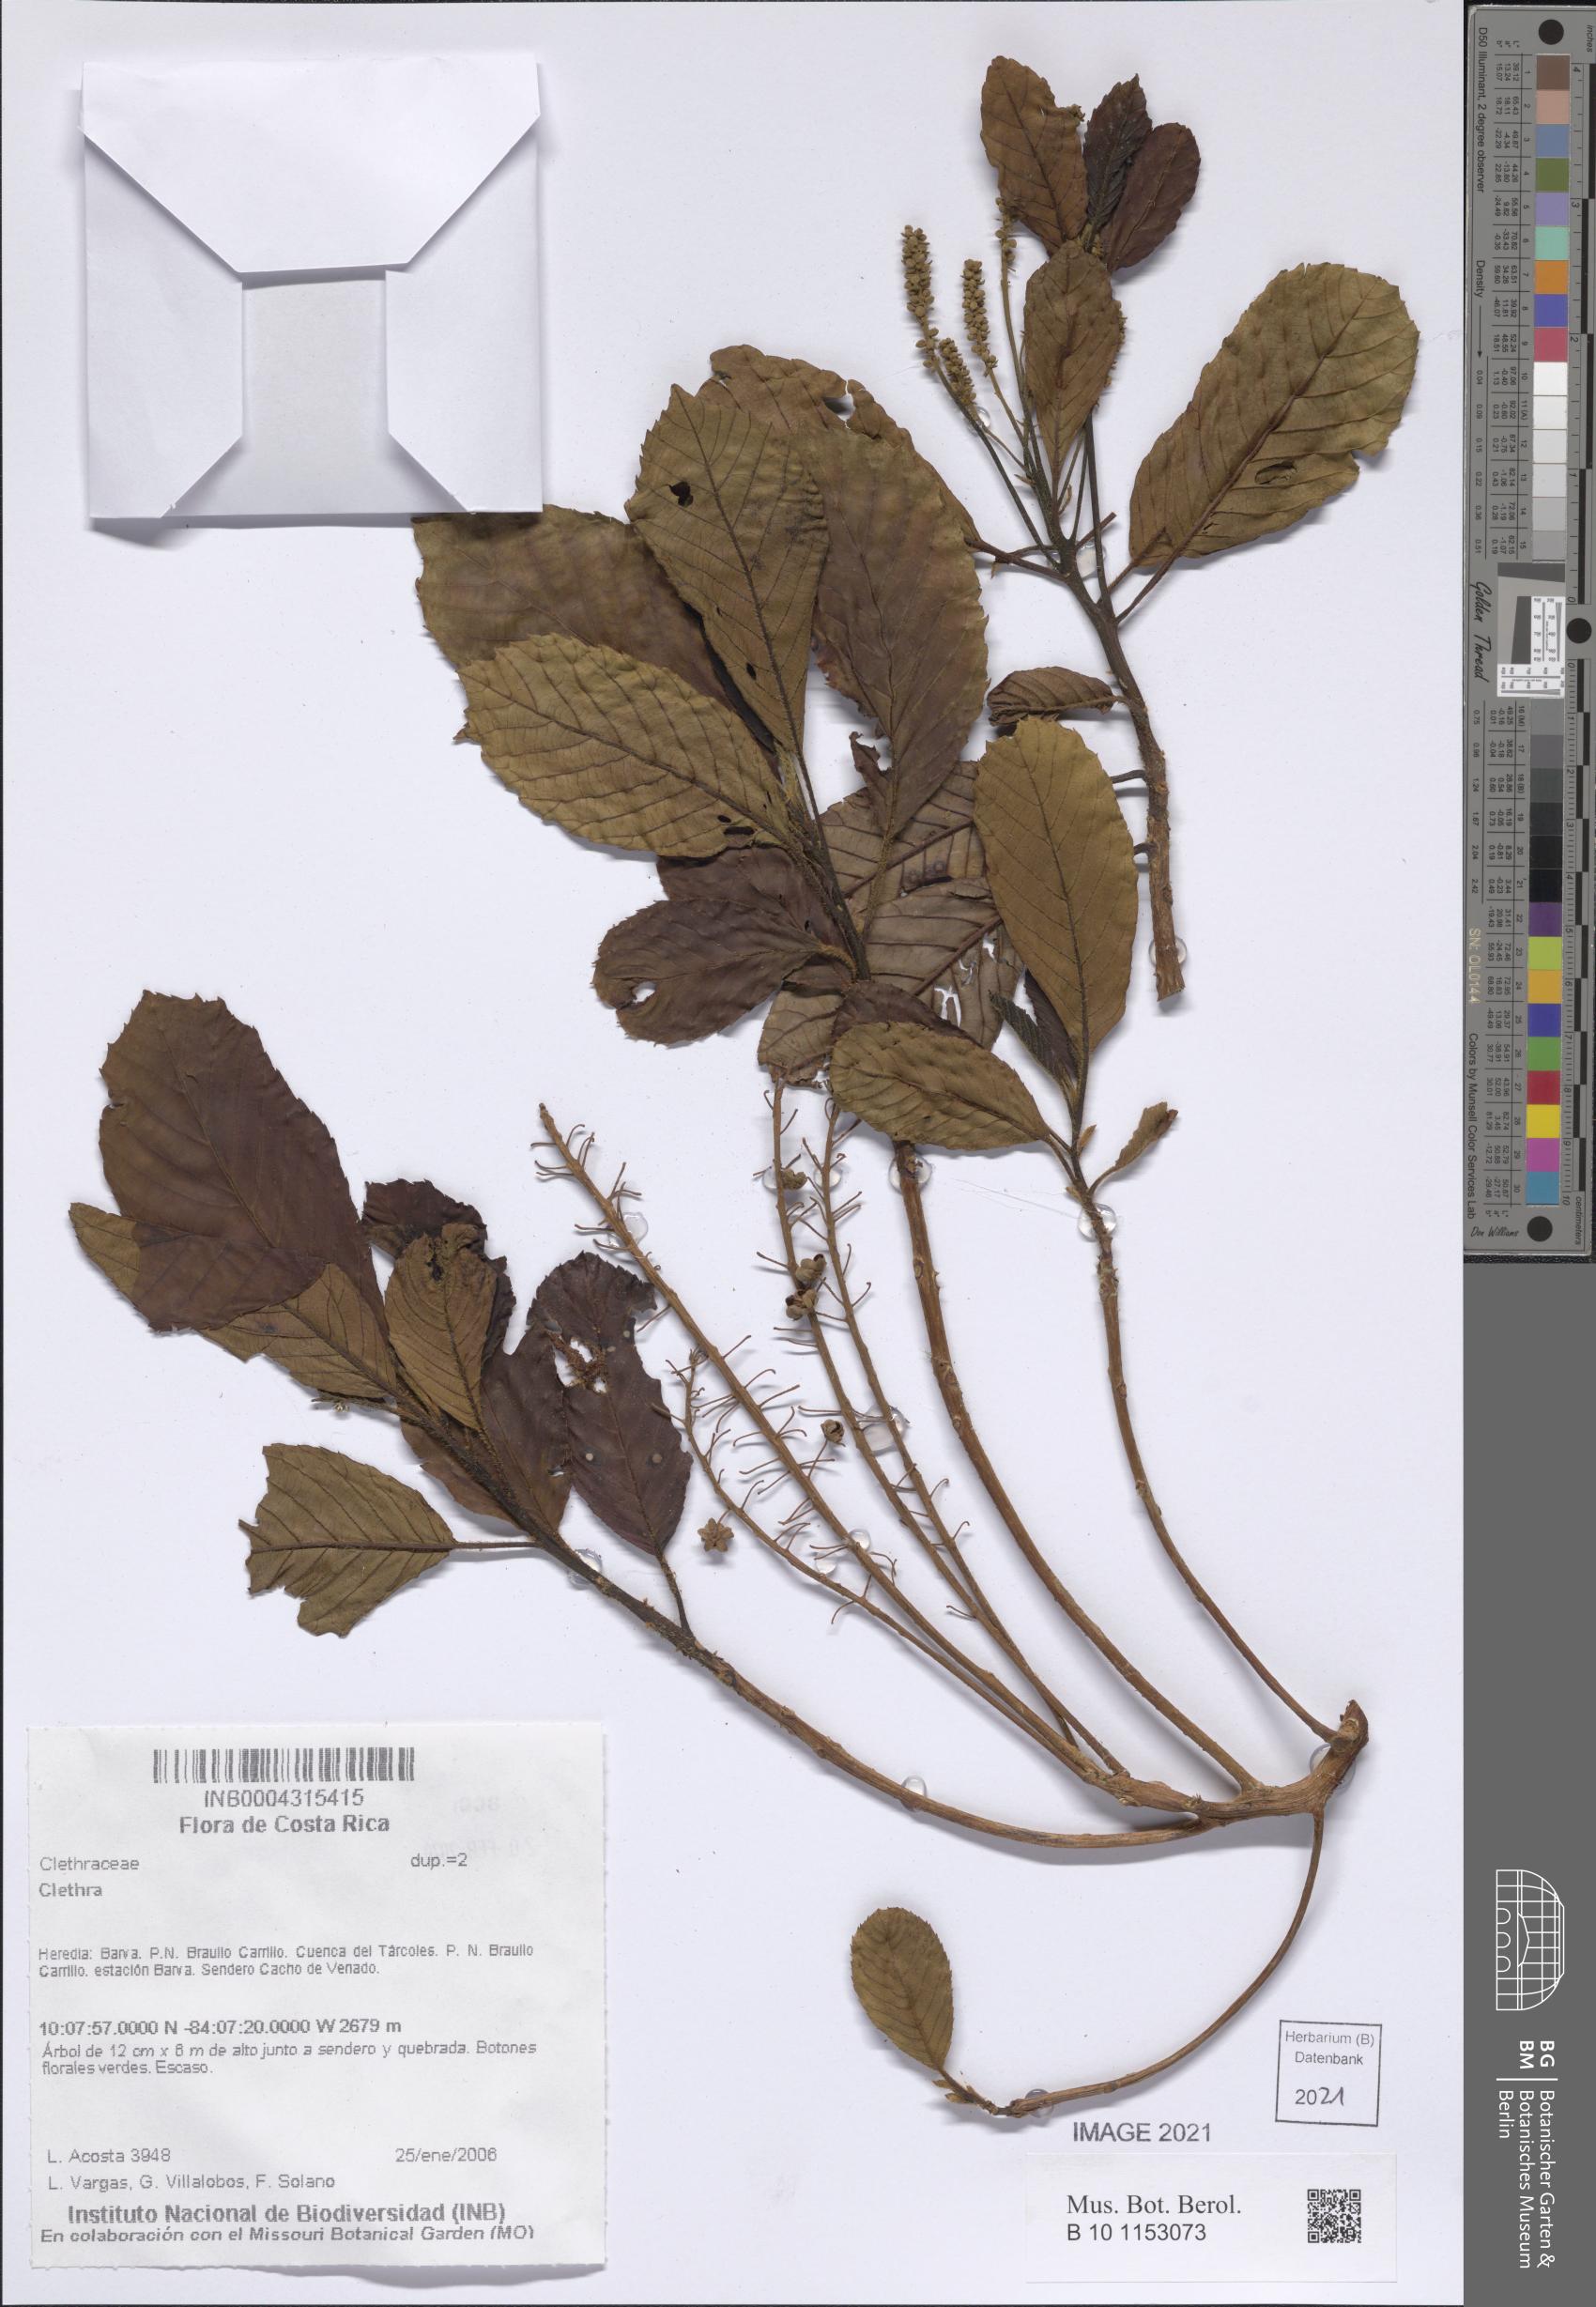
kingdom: Plantae
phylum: Tracheophyta
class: Magnoliopsida
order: Ericales
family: Clethraceae
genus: Clethra
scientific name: Clethra
